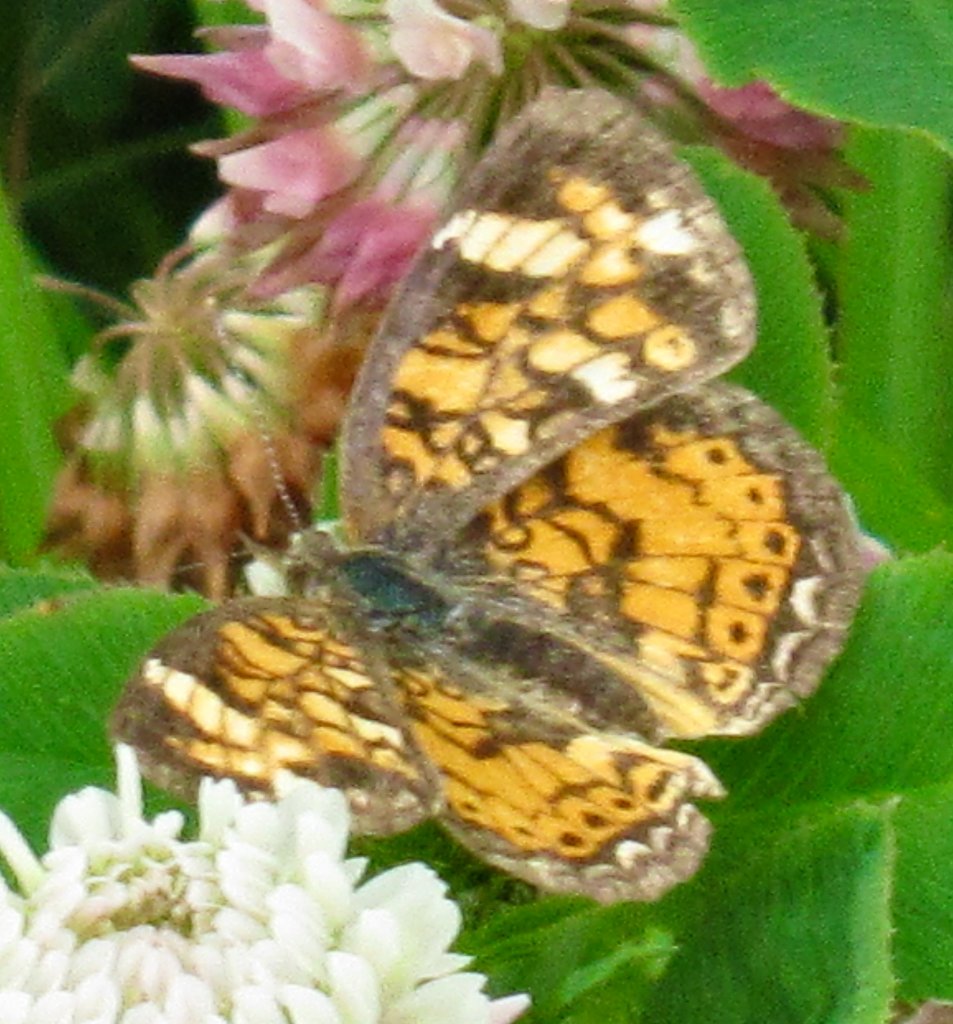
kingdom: Animalia
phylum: Arthropoda
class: Insecta
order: Lepidoptera
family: Nymphalidae
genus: Phyciodes
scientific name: Phyciodes tharos
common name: Pearl Crescent
